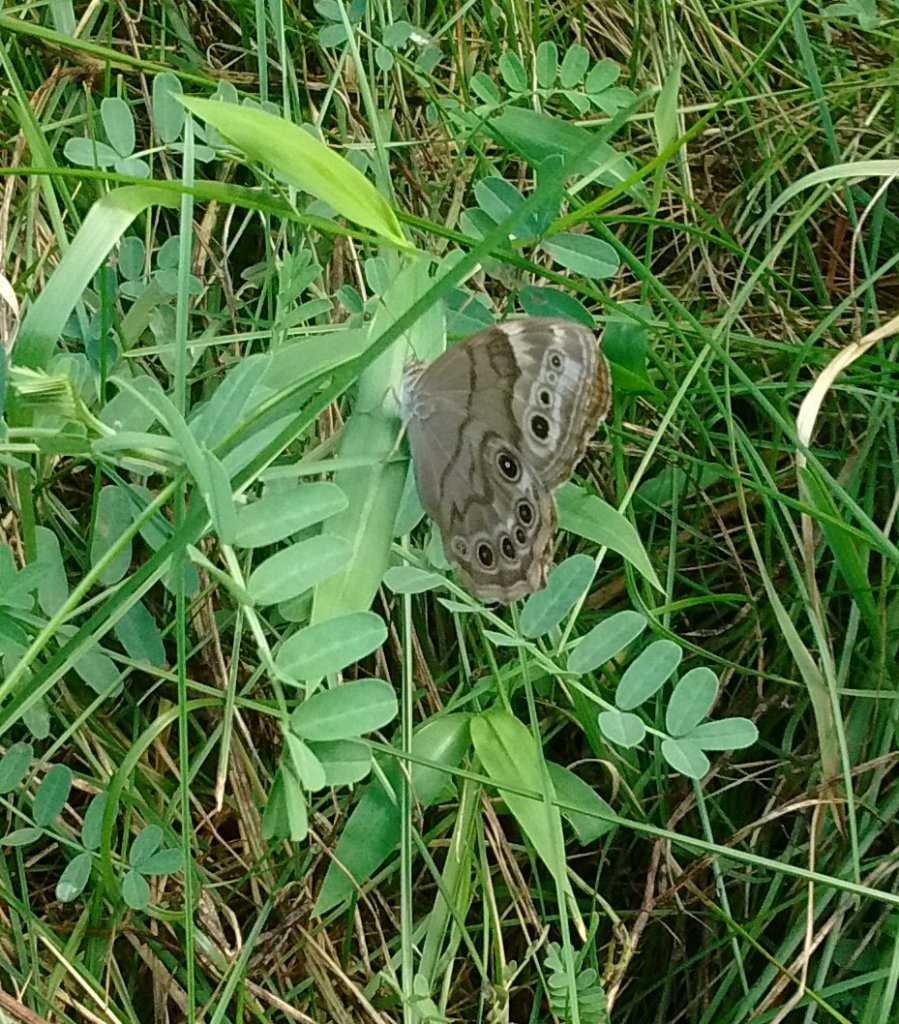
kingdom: Animalia
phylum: Arthropoda
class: Insecta
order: Lepidoptera
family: Nymphalidae
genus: Lethe
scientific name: Lethe anthedon
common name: Northern Pearly-Eye
